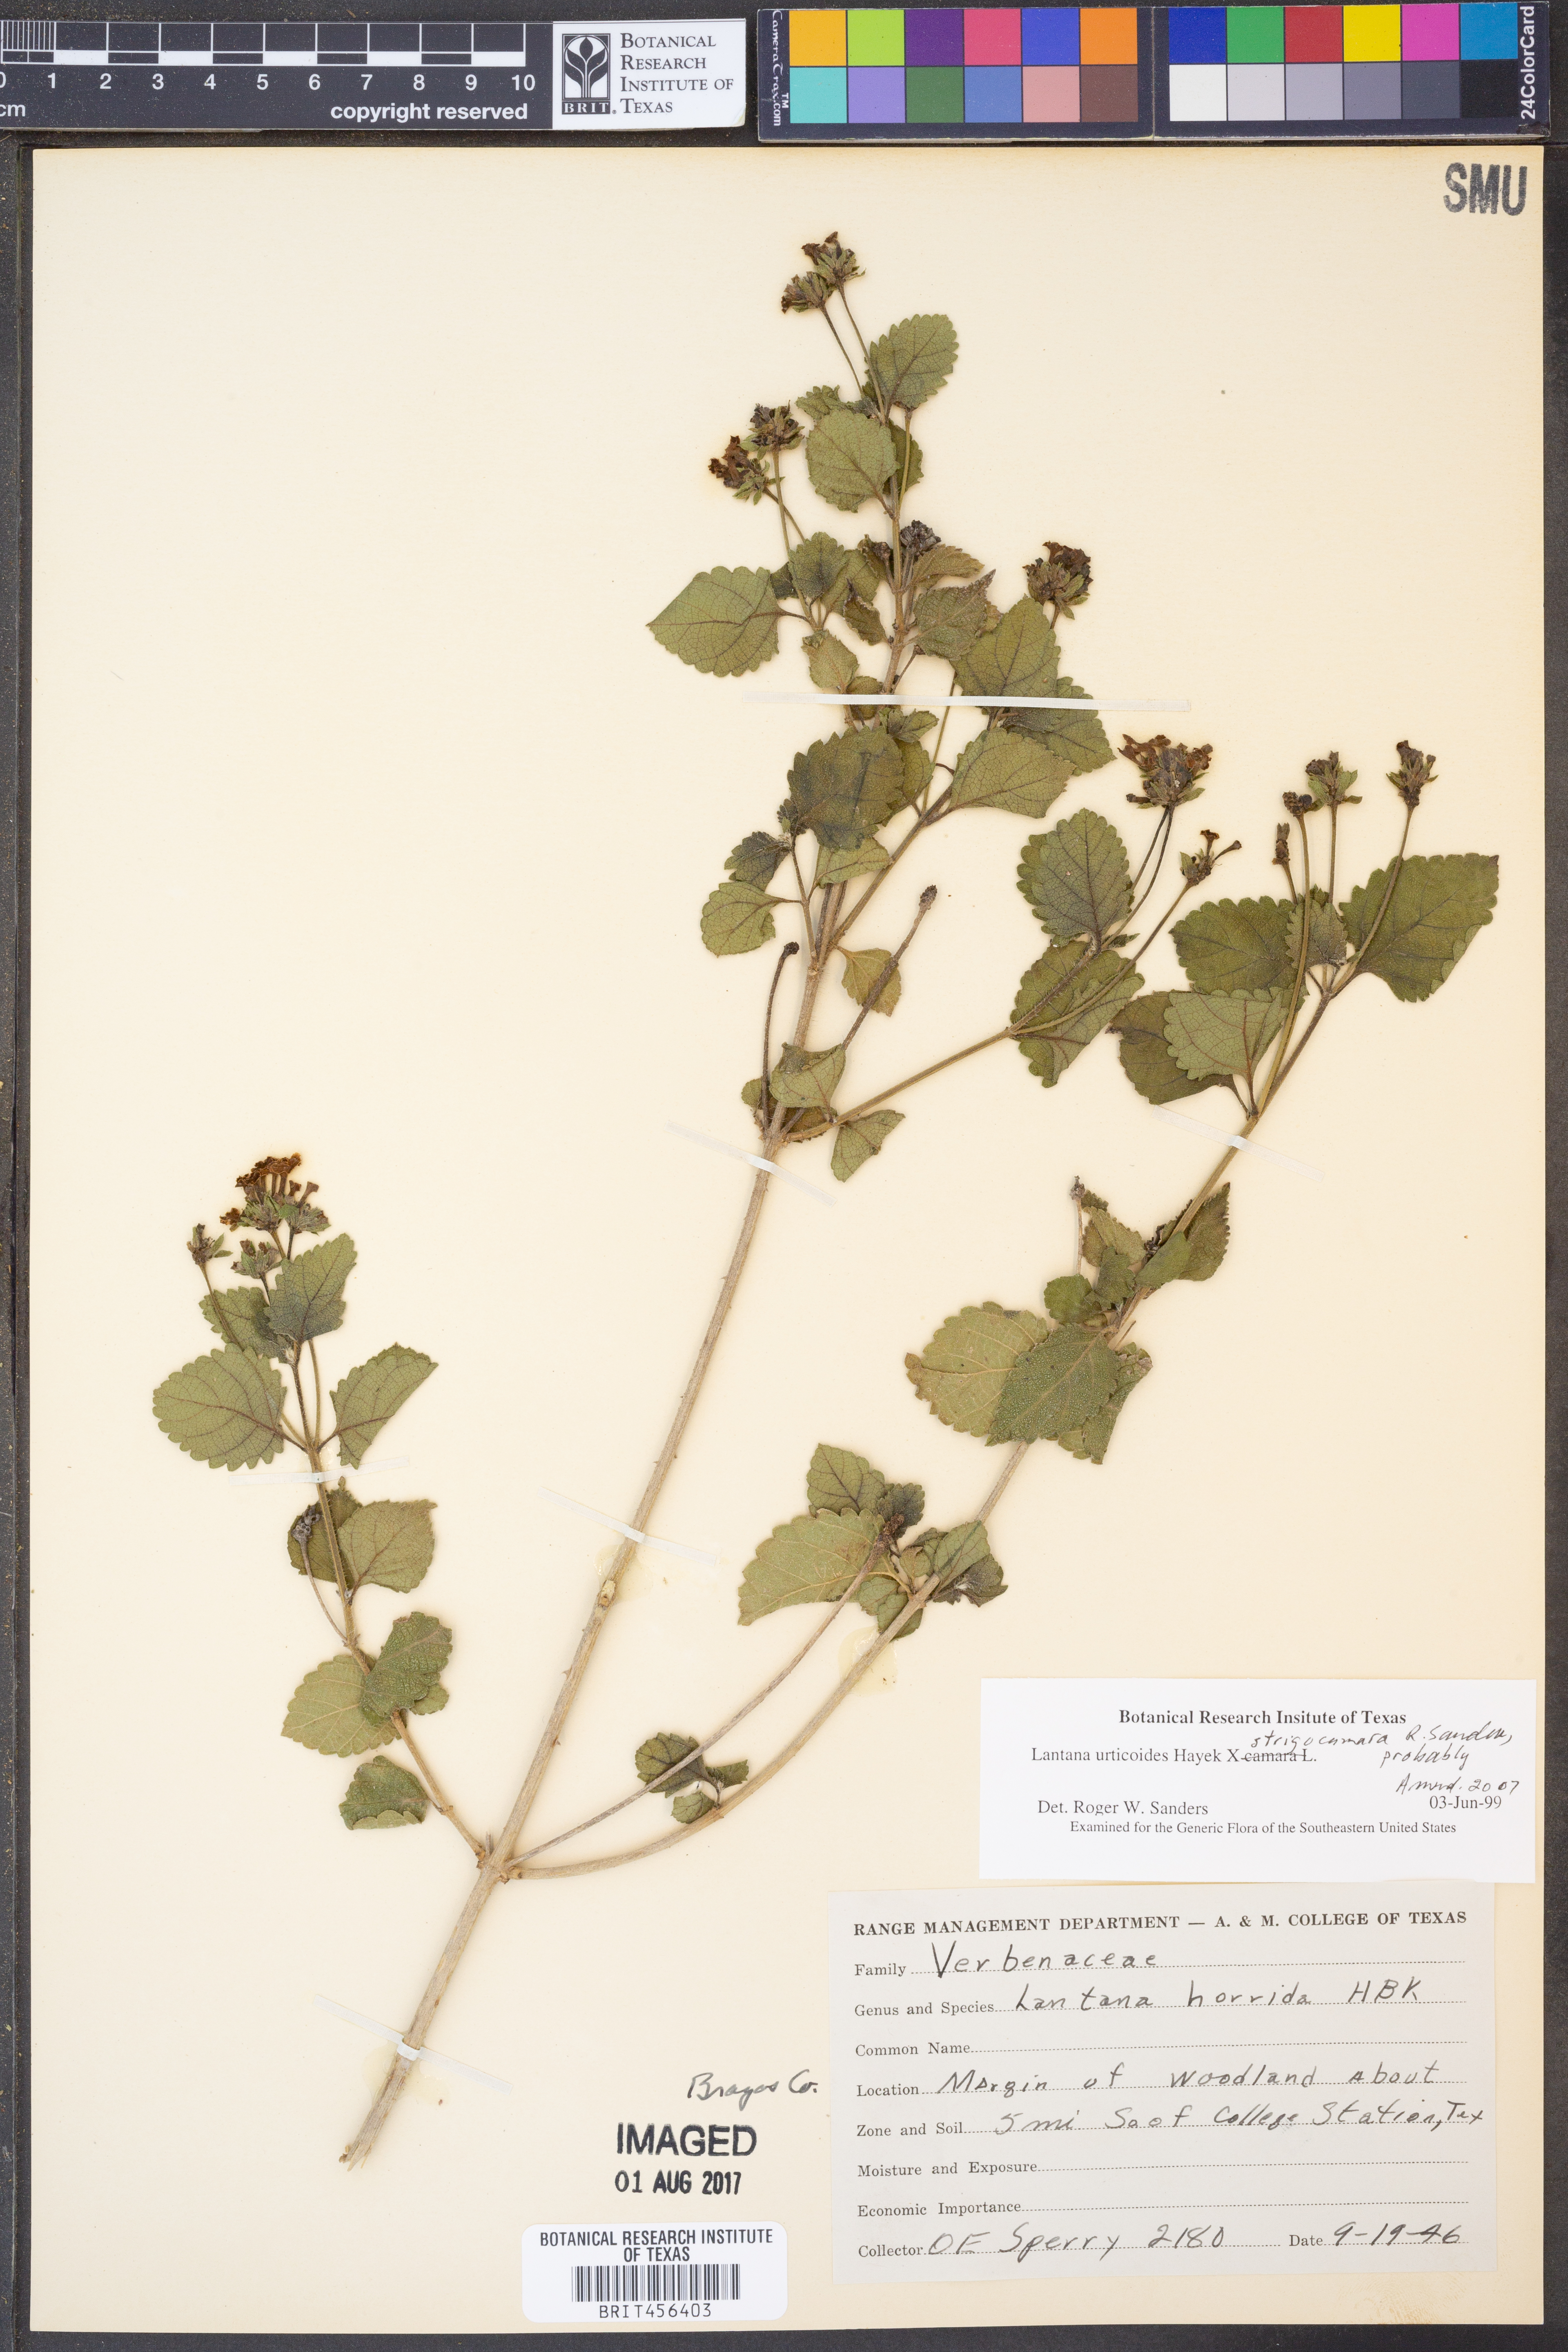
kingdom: Plantae
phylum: Tracheophyta
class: Magnoliopsida
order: Lamiales
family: Verbenaceae
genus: Lantana
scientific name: Lantana urticoides
